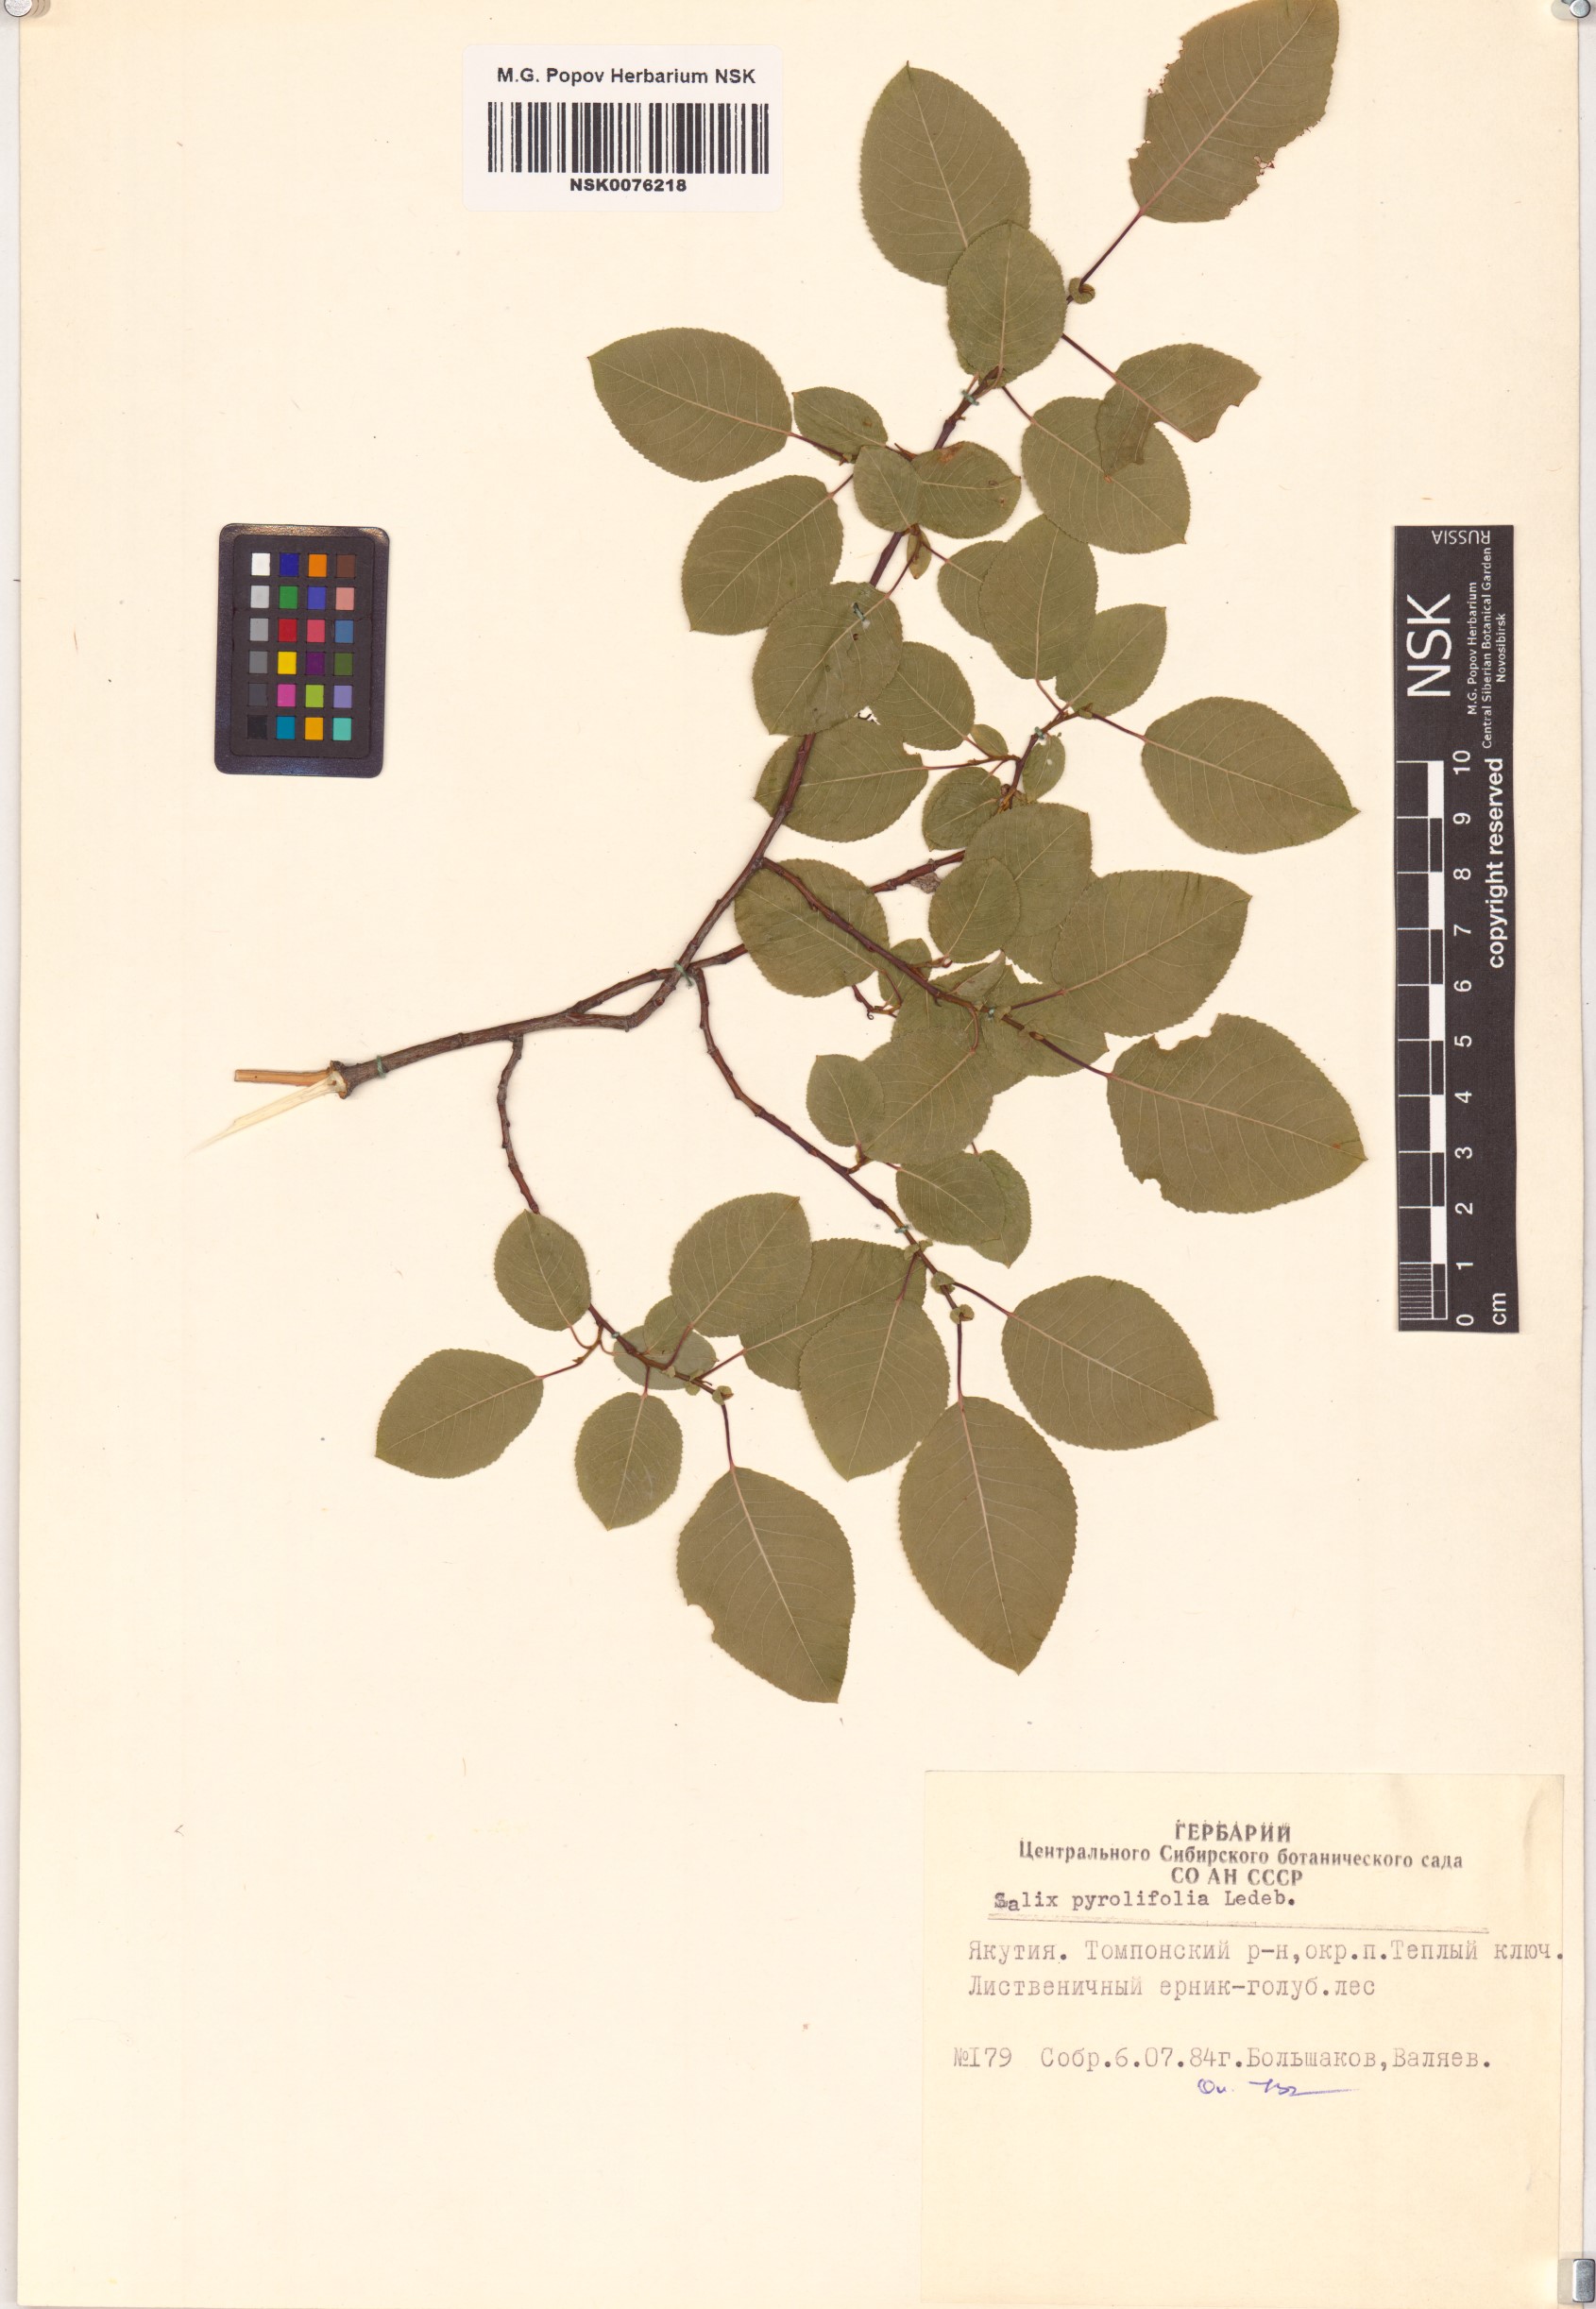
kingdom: Plantae
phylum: Tracheophyta
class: Magnoliopsida
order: Malpighiales
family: Salicaceae
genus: Salix
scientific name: Salix pyrolifolia
